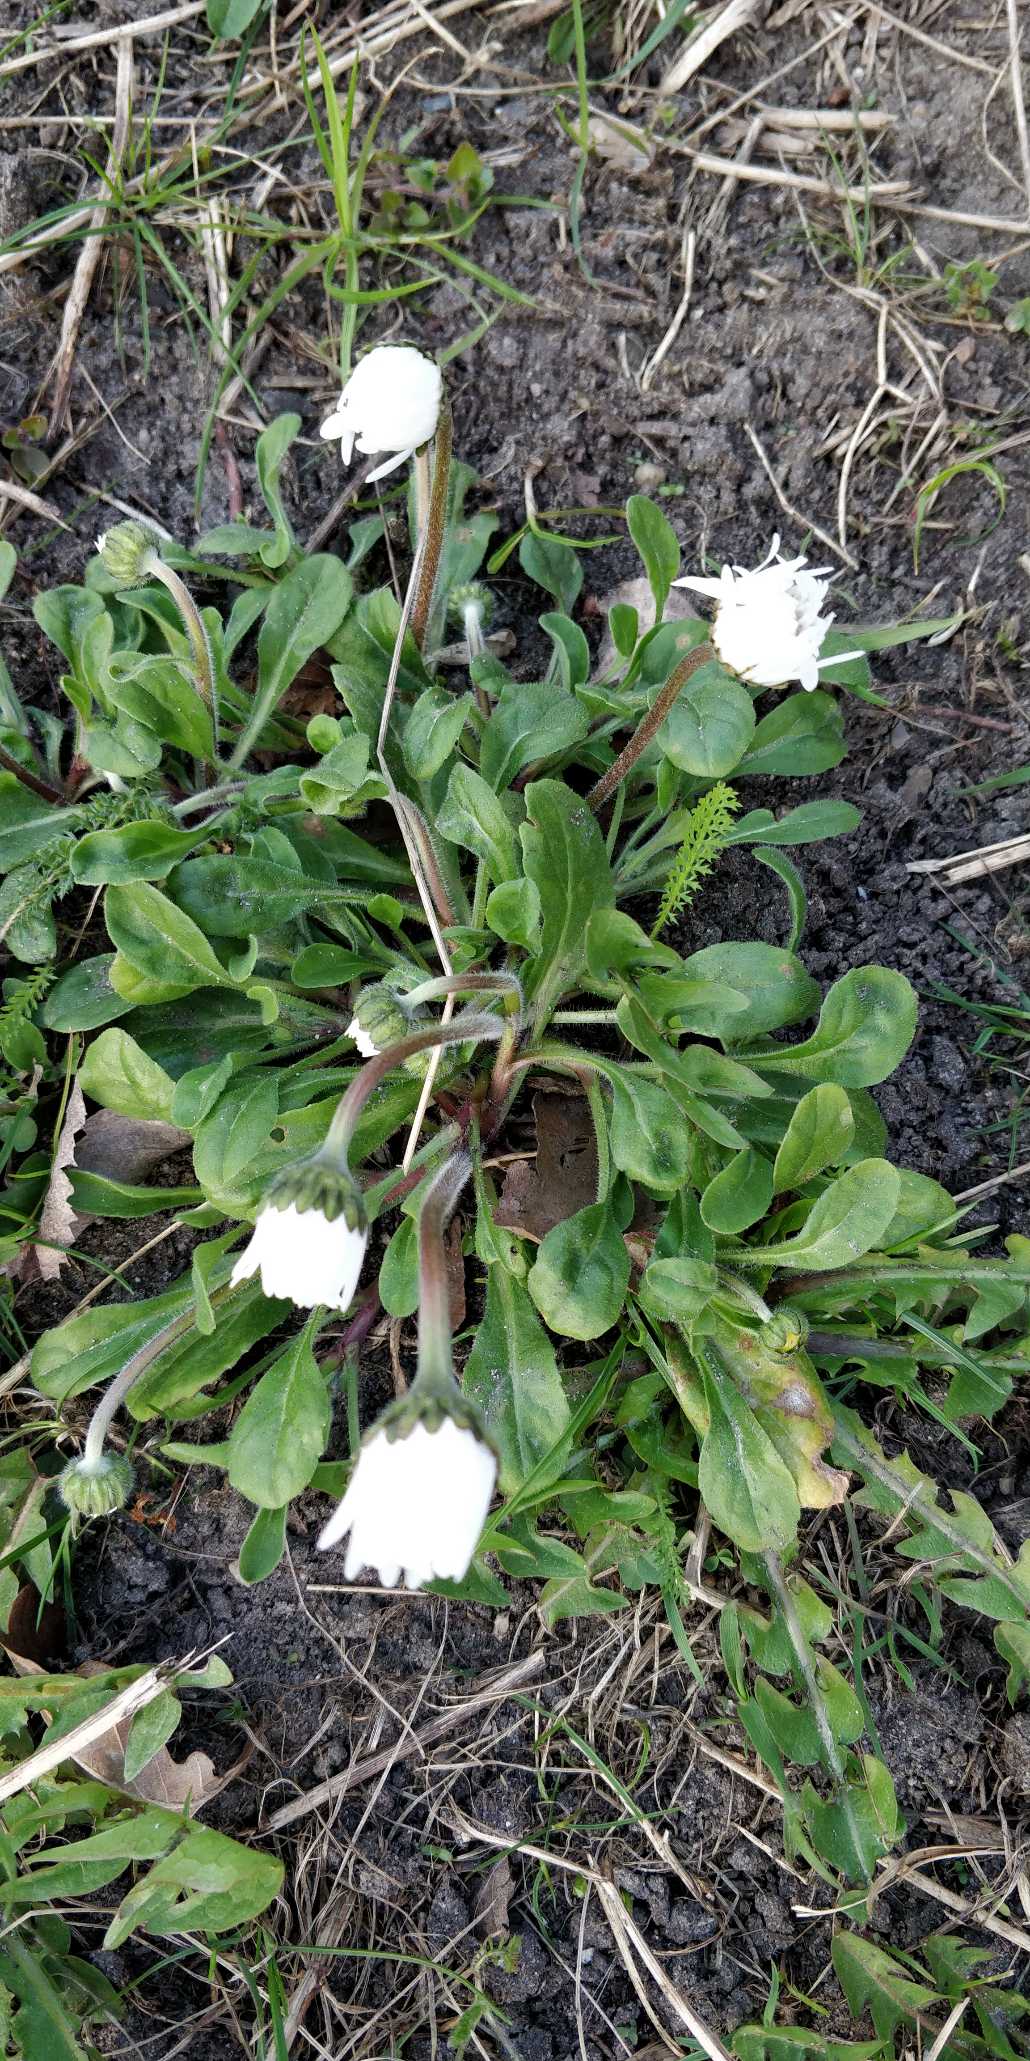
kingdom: Plantae
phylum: Tracheophyta
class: Magnoliopsida
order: Asterales
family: Asteraceae
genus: Bellis
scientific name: Bellis perennis
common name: Tusindfryd
